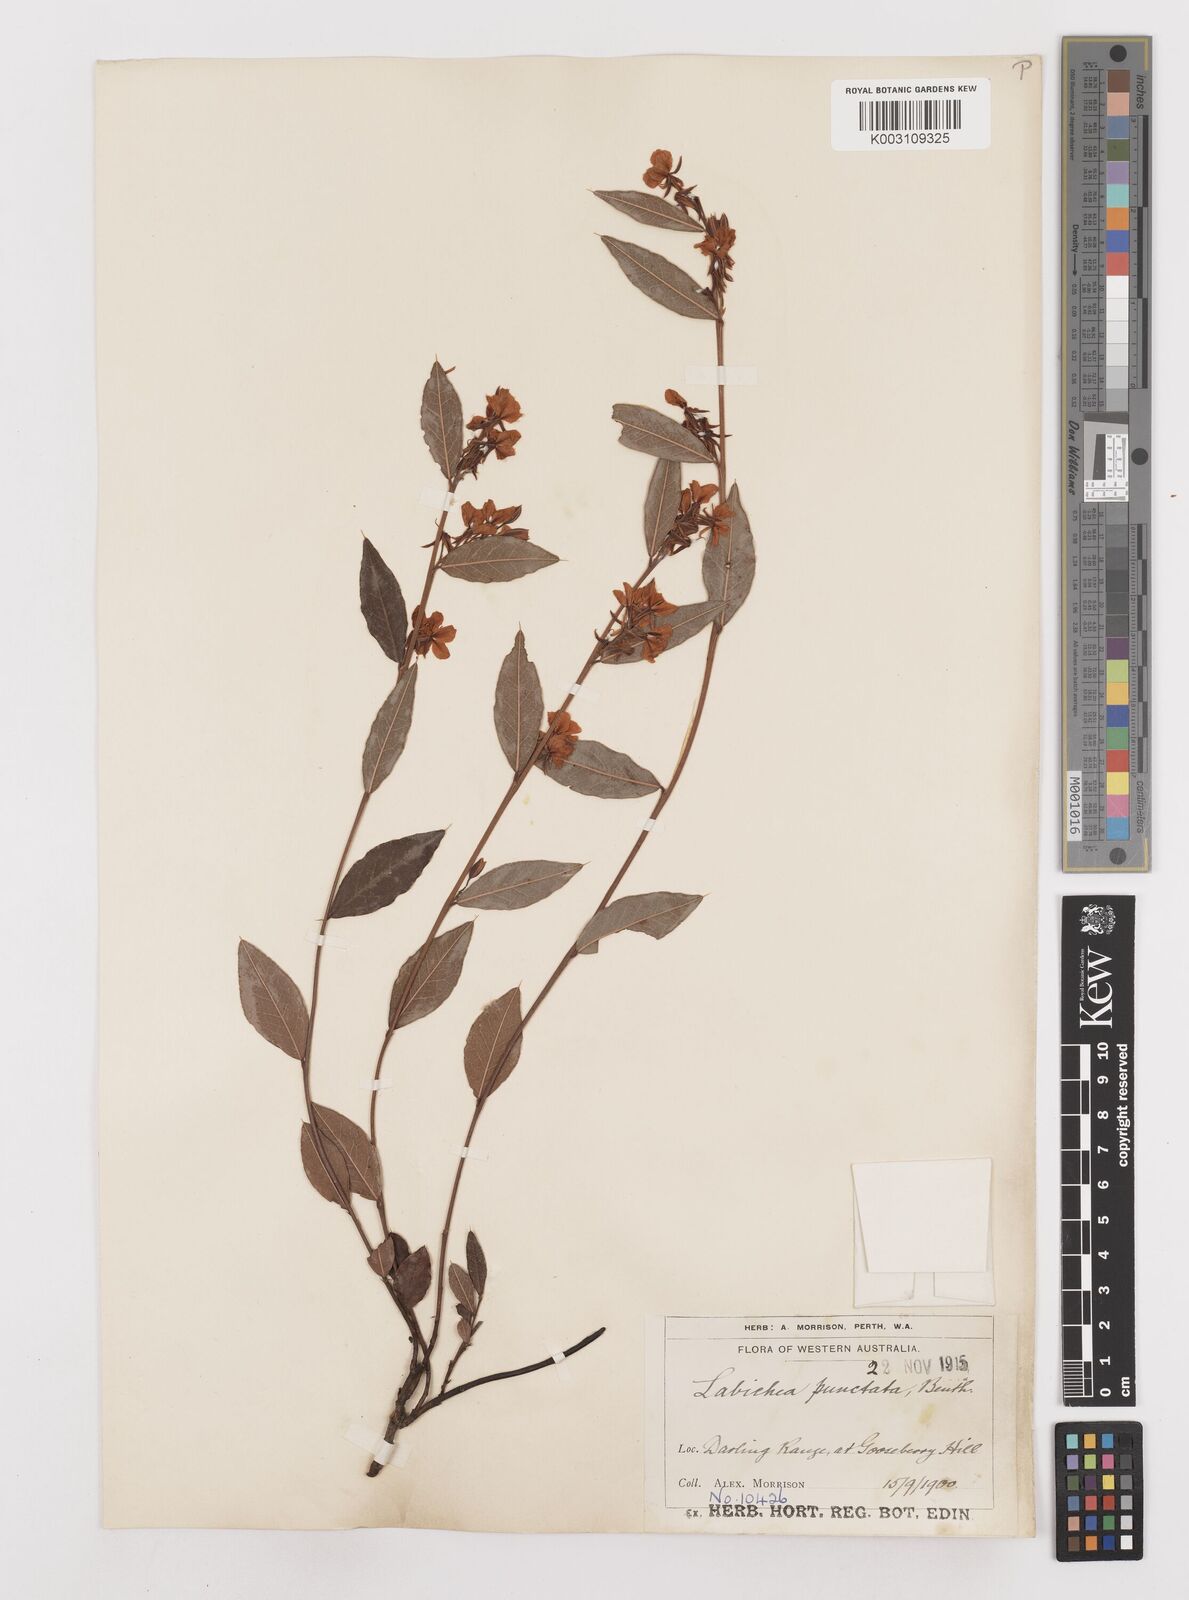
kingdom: Plantae
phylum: Tracheophyta
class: Magnoliopsida
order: Fabales
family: Fabaceae
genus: Labichea
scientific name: Labichea punctata
